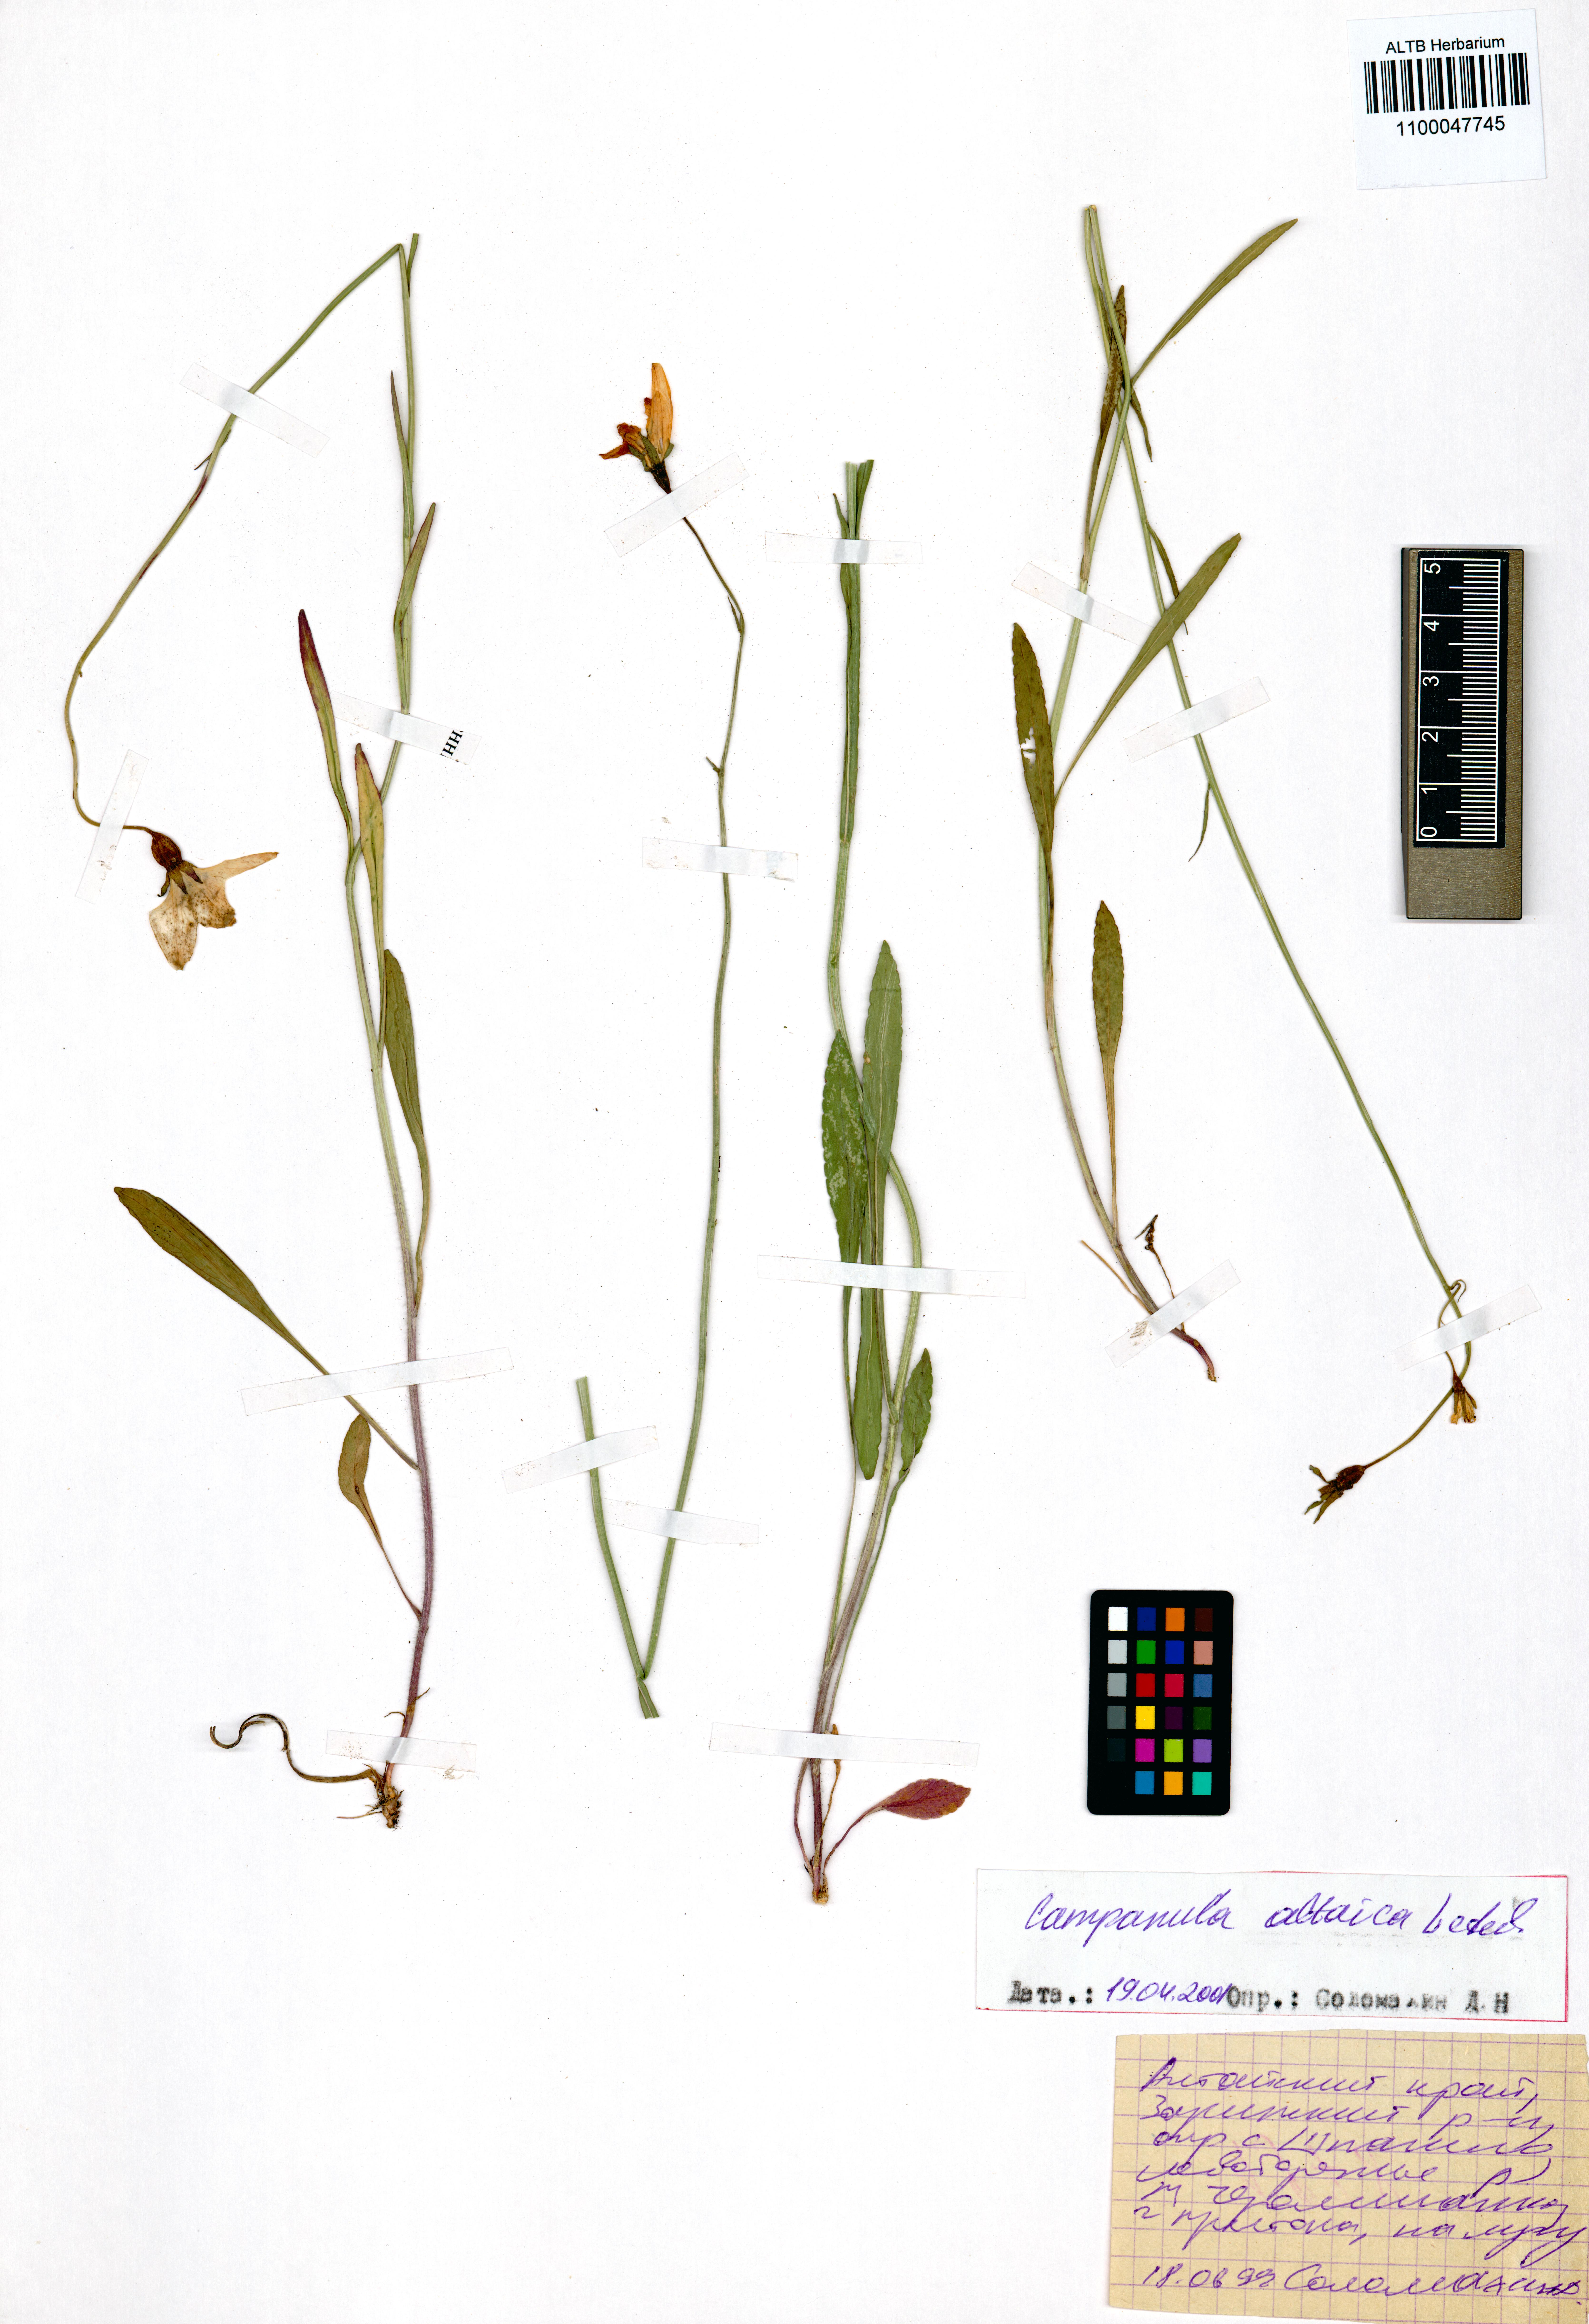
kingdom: Plantae
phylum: Tracheophyta
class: Magnoliopsida
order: Asterales
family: Campanulaceae
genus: Campanula
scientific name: Campanula stevenii
